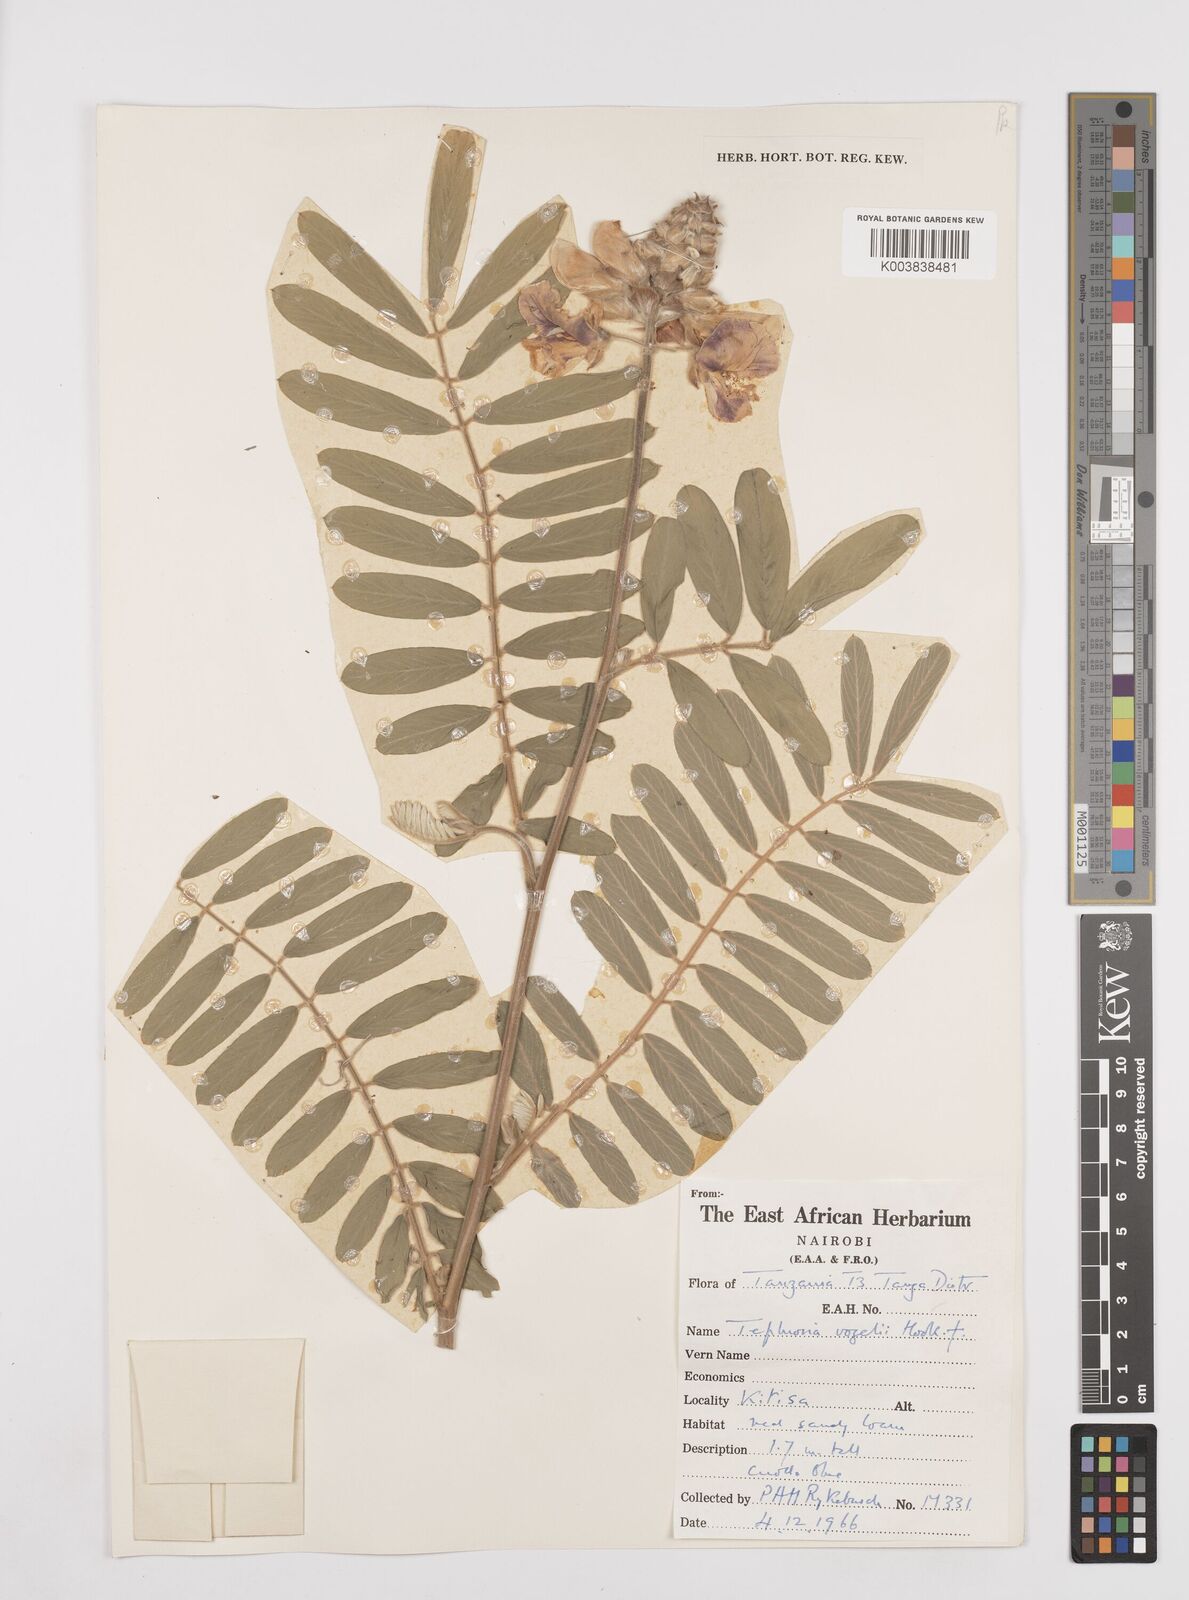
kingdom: Plantae
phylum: Tracheophyta
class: Magnoliopsida
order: Fabales
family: Fabaceae
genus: Tephrosia
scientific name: Tephrosia vogelii
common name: Vogel tephrosia
